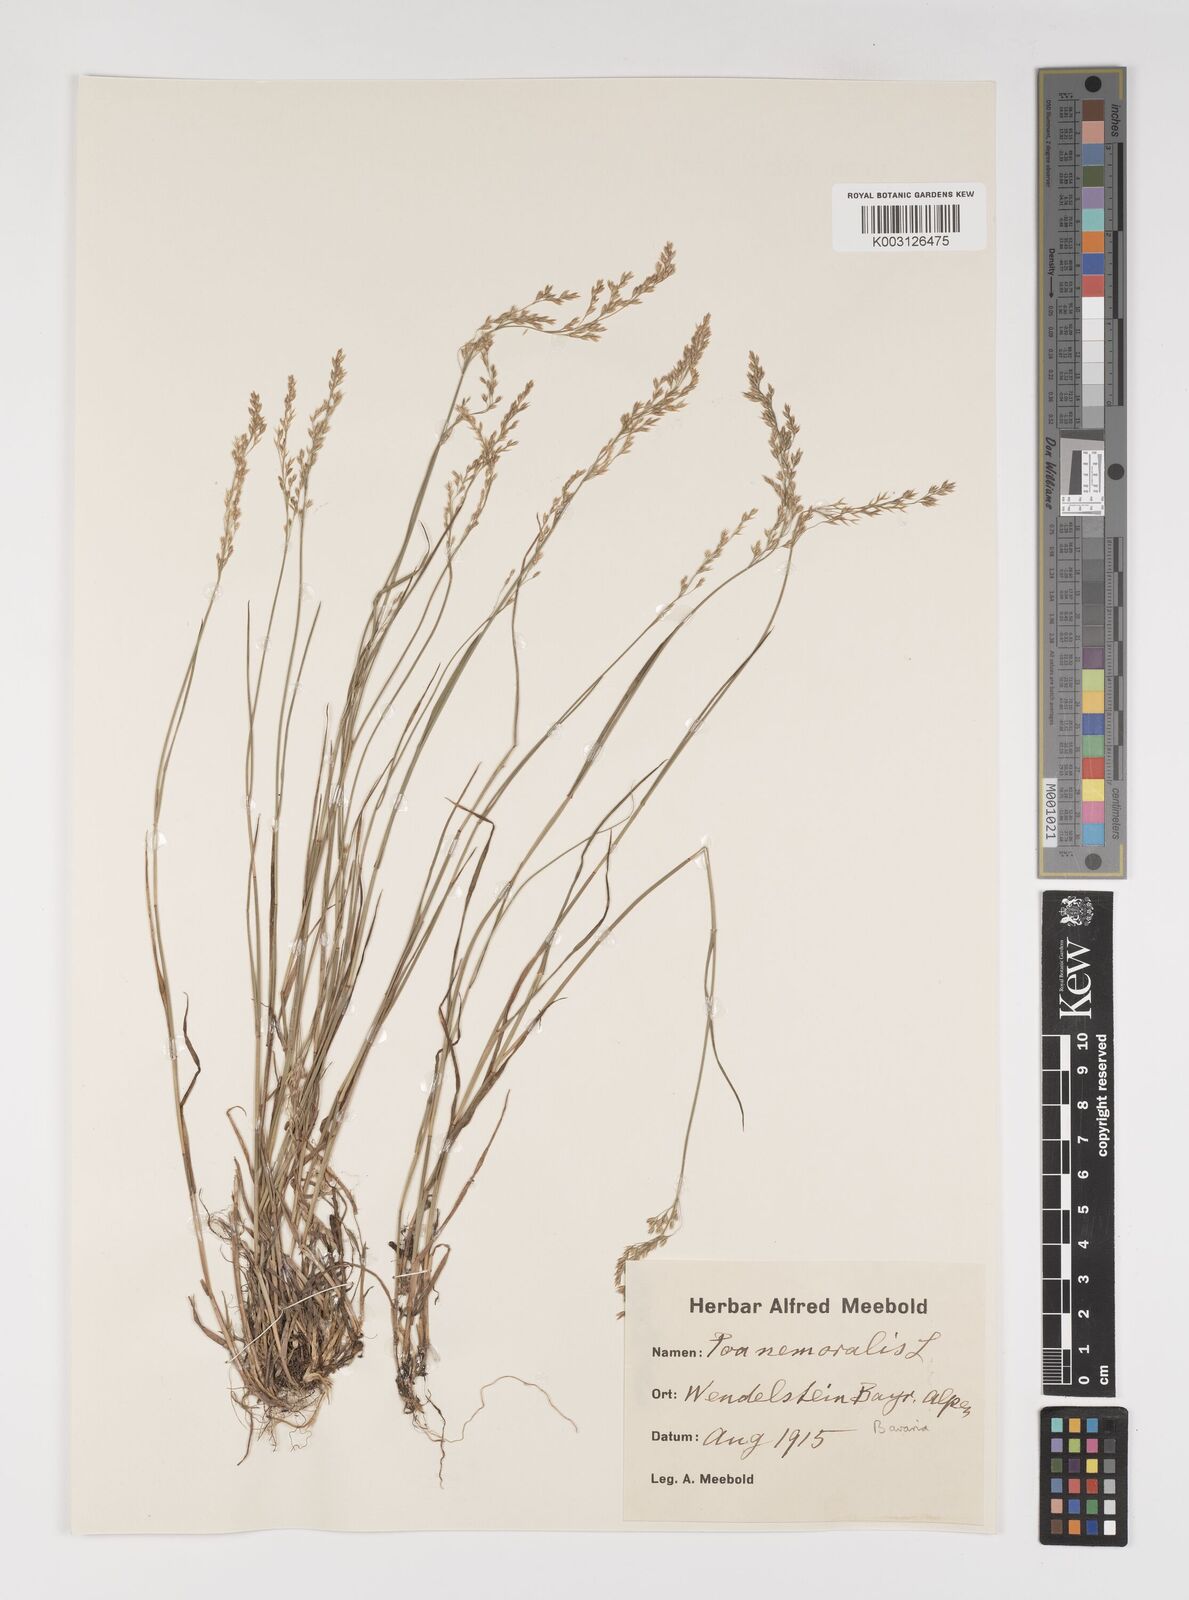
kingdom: Plantae
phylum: Tracheophyta
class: Liliopsida
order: Poales
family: Poaceae
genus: Poa
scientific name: Poa nemoralis
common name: Wood bluegrass
